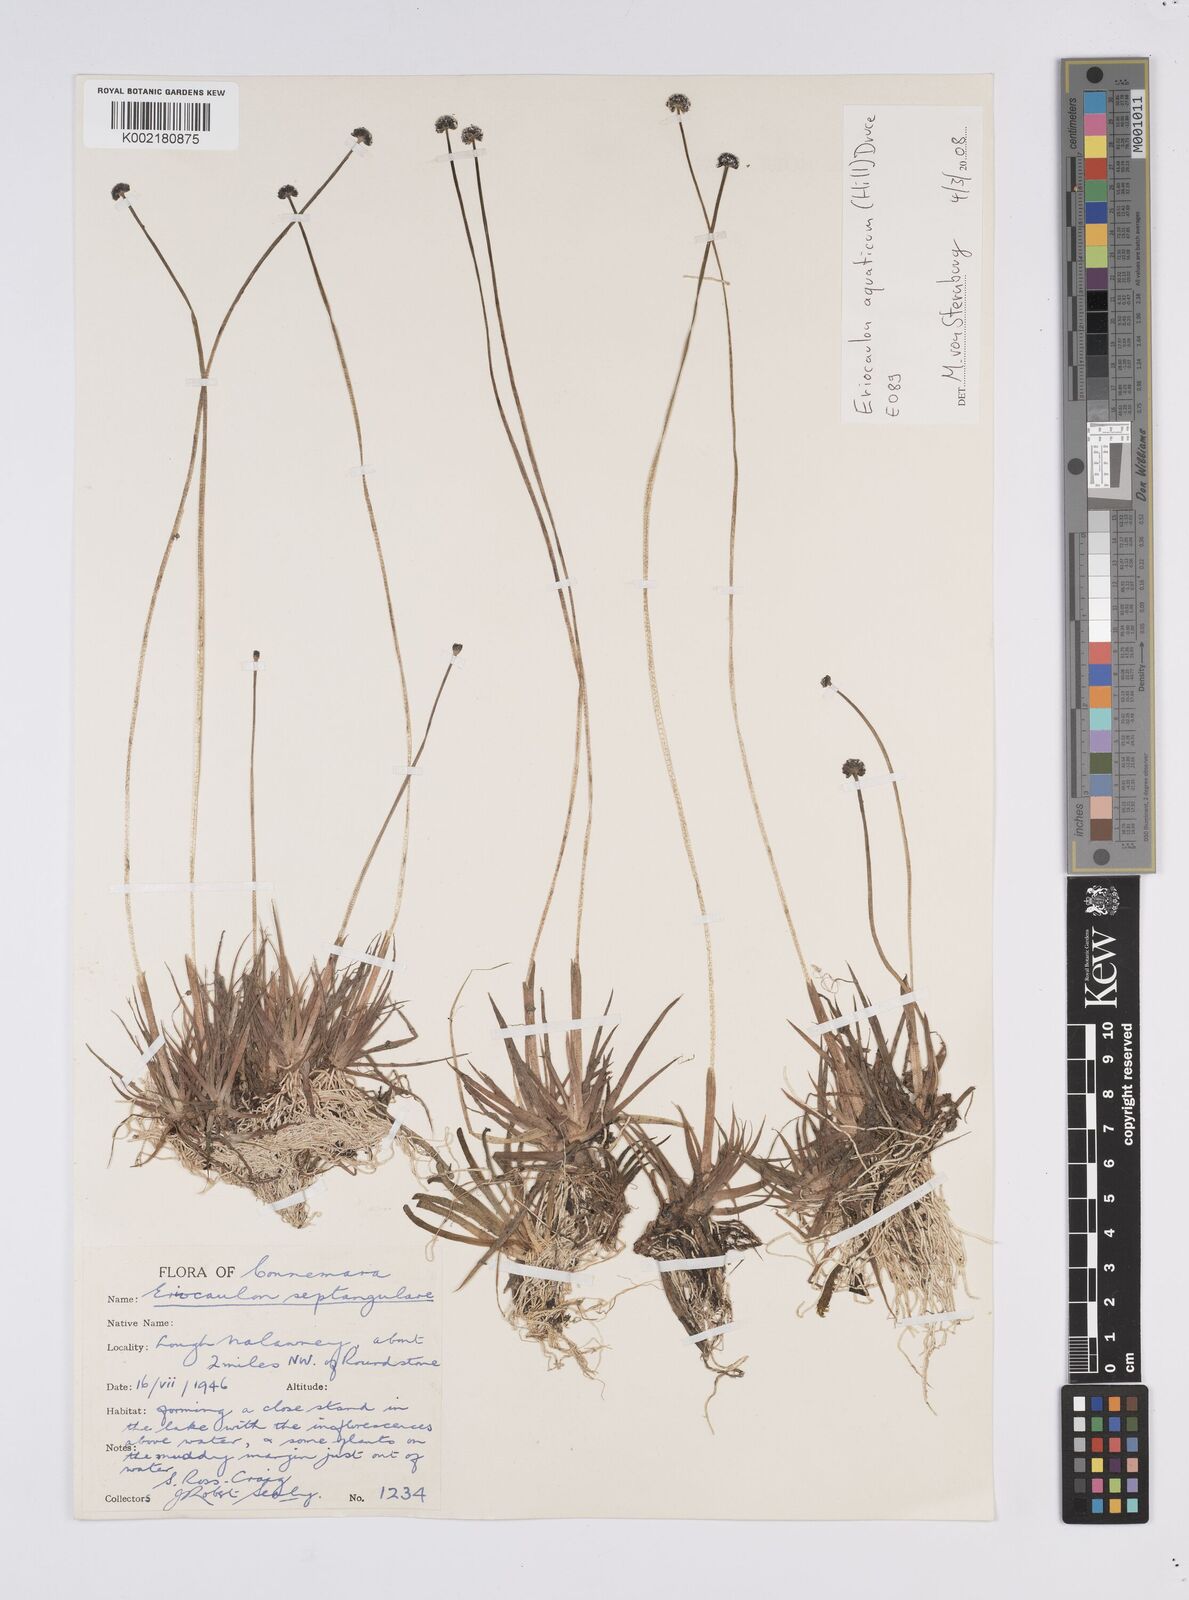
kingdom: Plantae
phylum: Tracheophyta
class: Liliopsida
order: Poales
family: Eriocaulaceae
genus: Eriocaulon
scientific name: Eriocaulon aquaticum
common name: Pipewort
